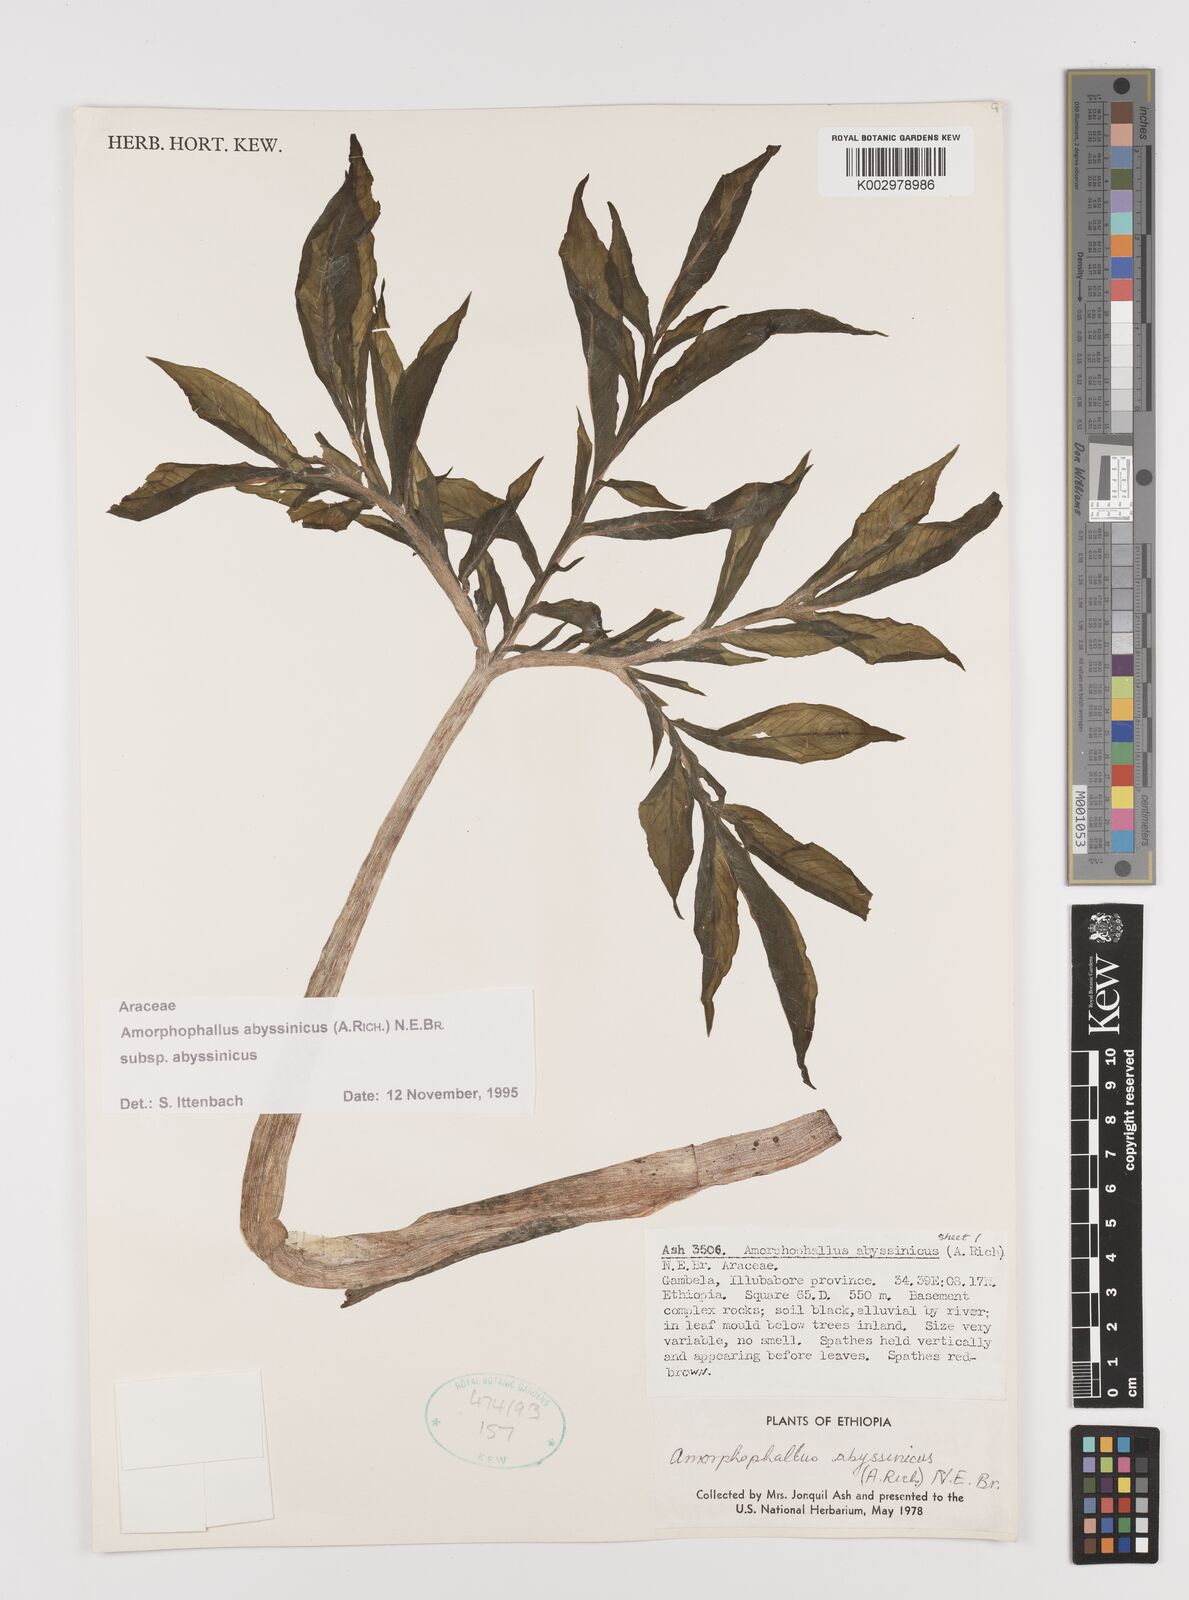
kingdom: Plantae
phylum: Tracheophyta
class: Liliopsida
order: Alismatales
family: Araceae
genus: Amorphophallus
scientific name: Amorphophallus abyssinicus
